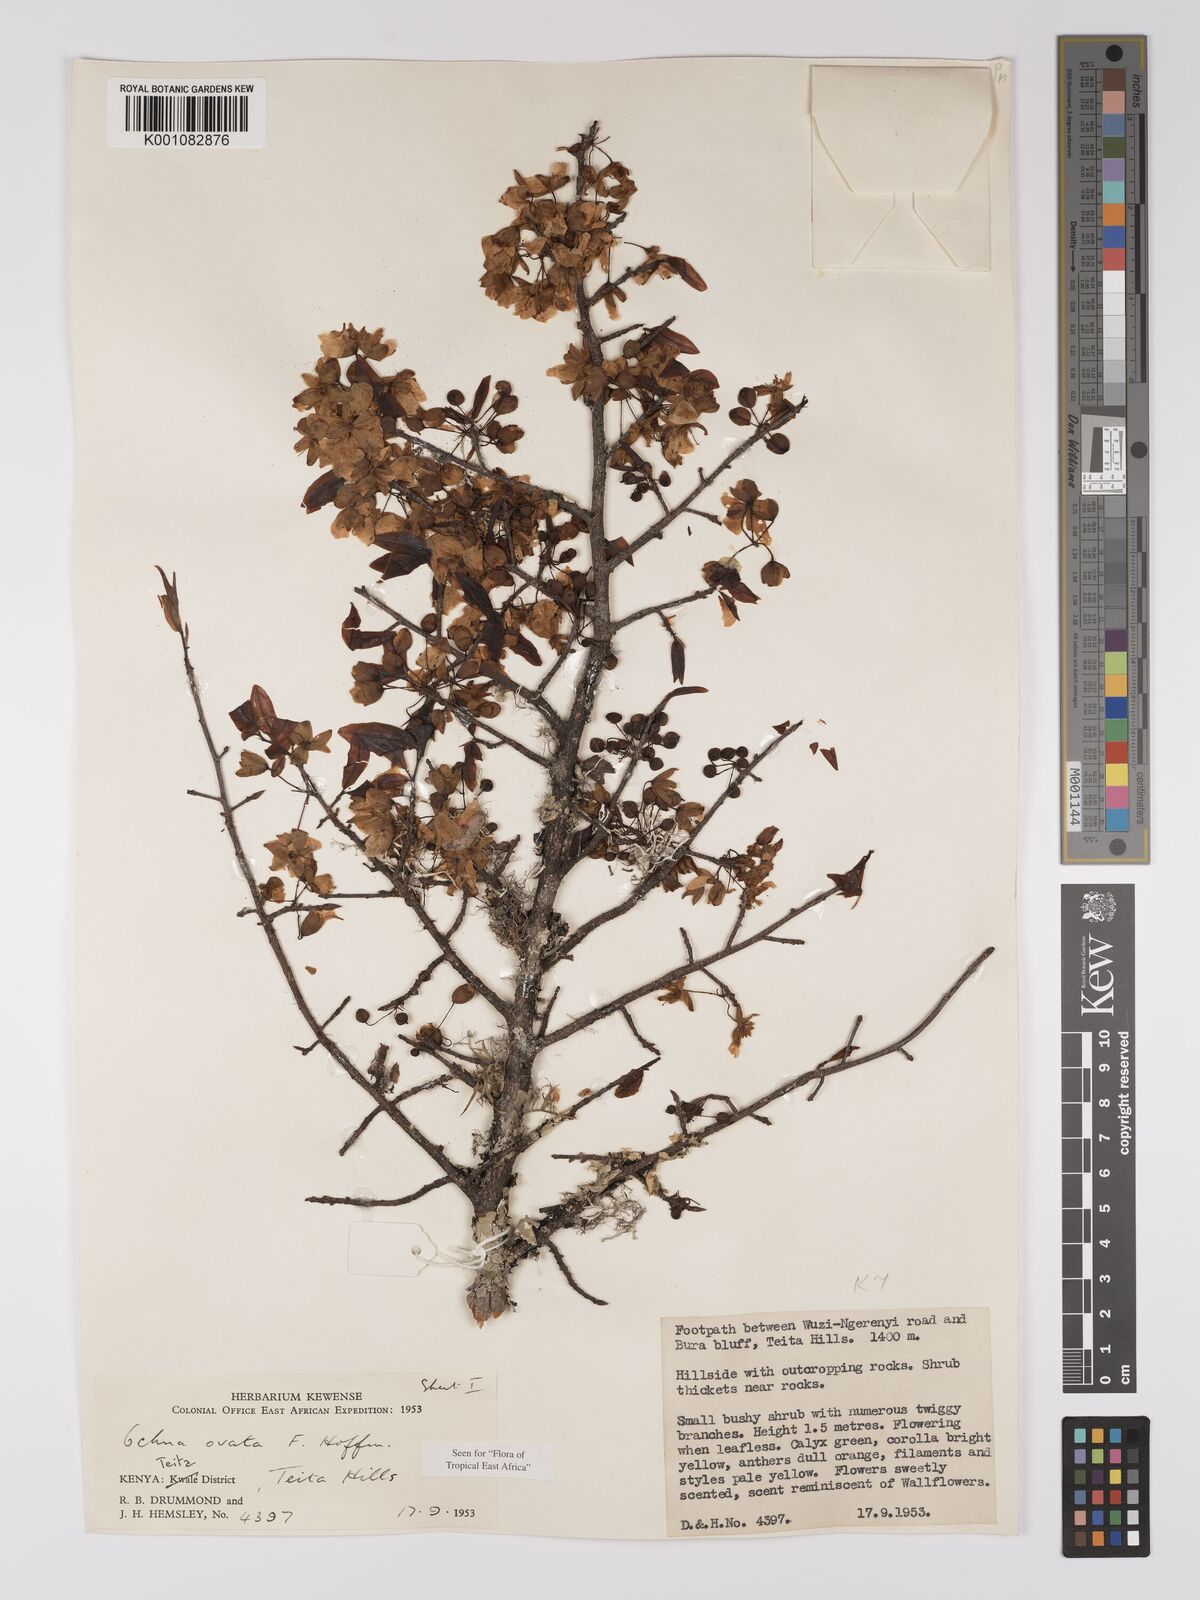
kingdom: Plantae
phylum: Tracheophyta
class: Magnoliopsida
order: Malpighiales
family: Ochnaceae
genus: Ochna
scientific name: Ochna ovata
